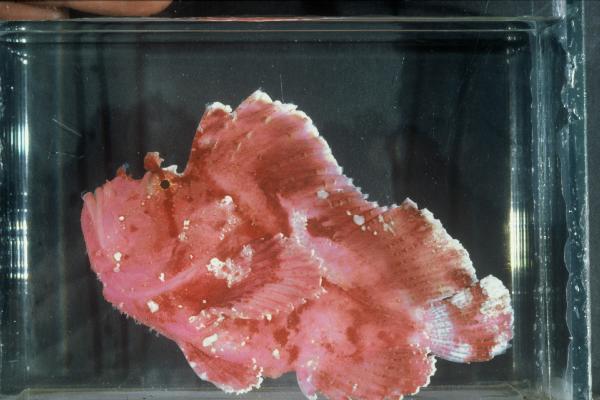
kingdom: Animalia
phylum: Chordata
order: Scorpaeniformes
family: Scorpaenidae
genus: Taenianotus
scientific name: Taenianotus triacanthus
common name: Leaf scorpionfish
